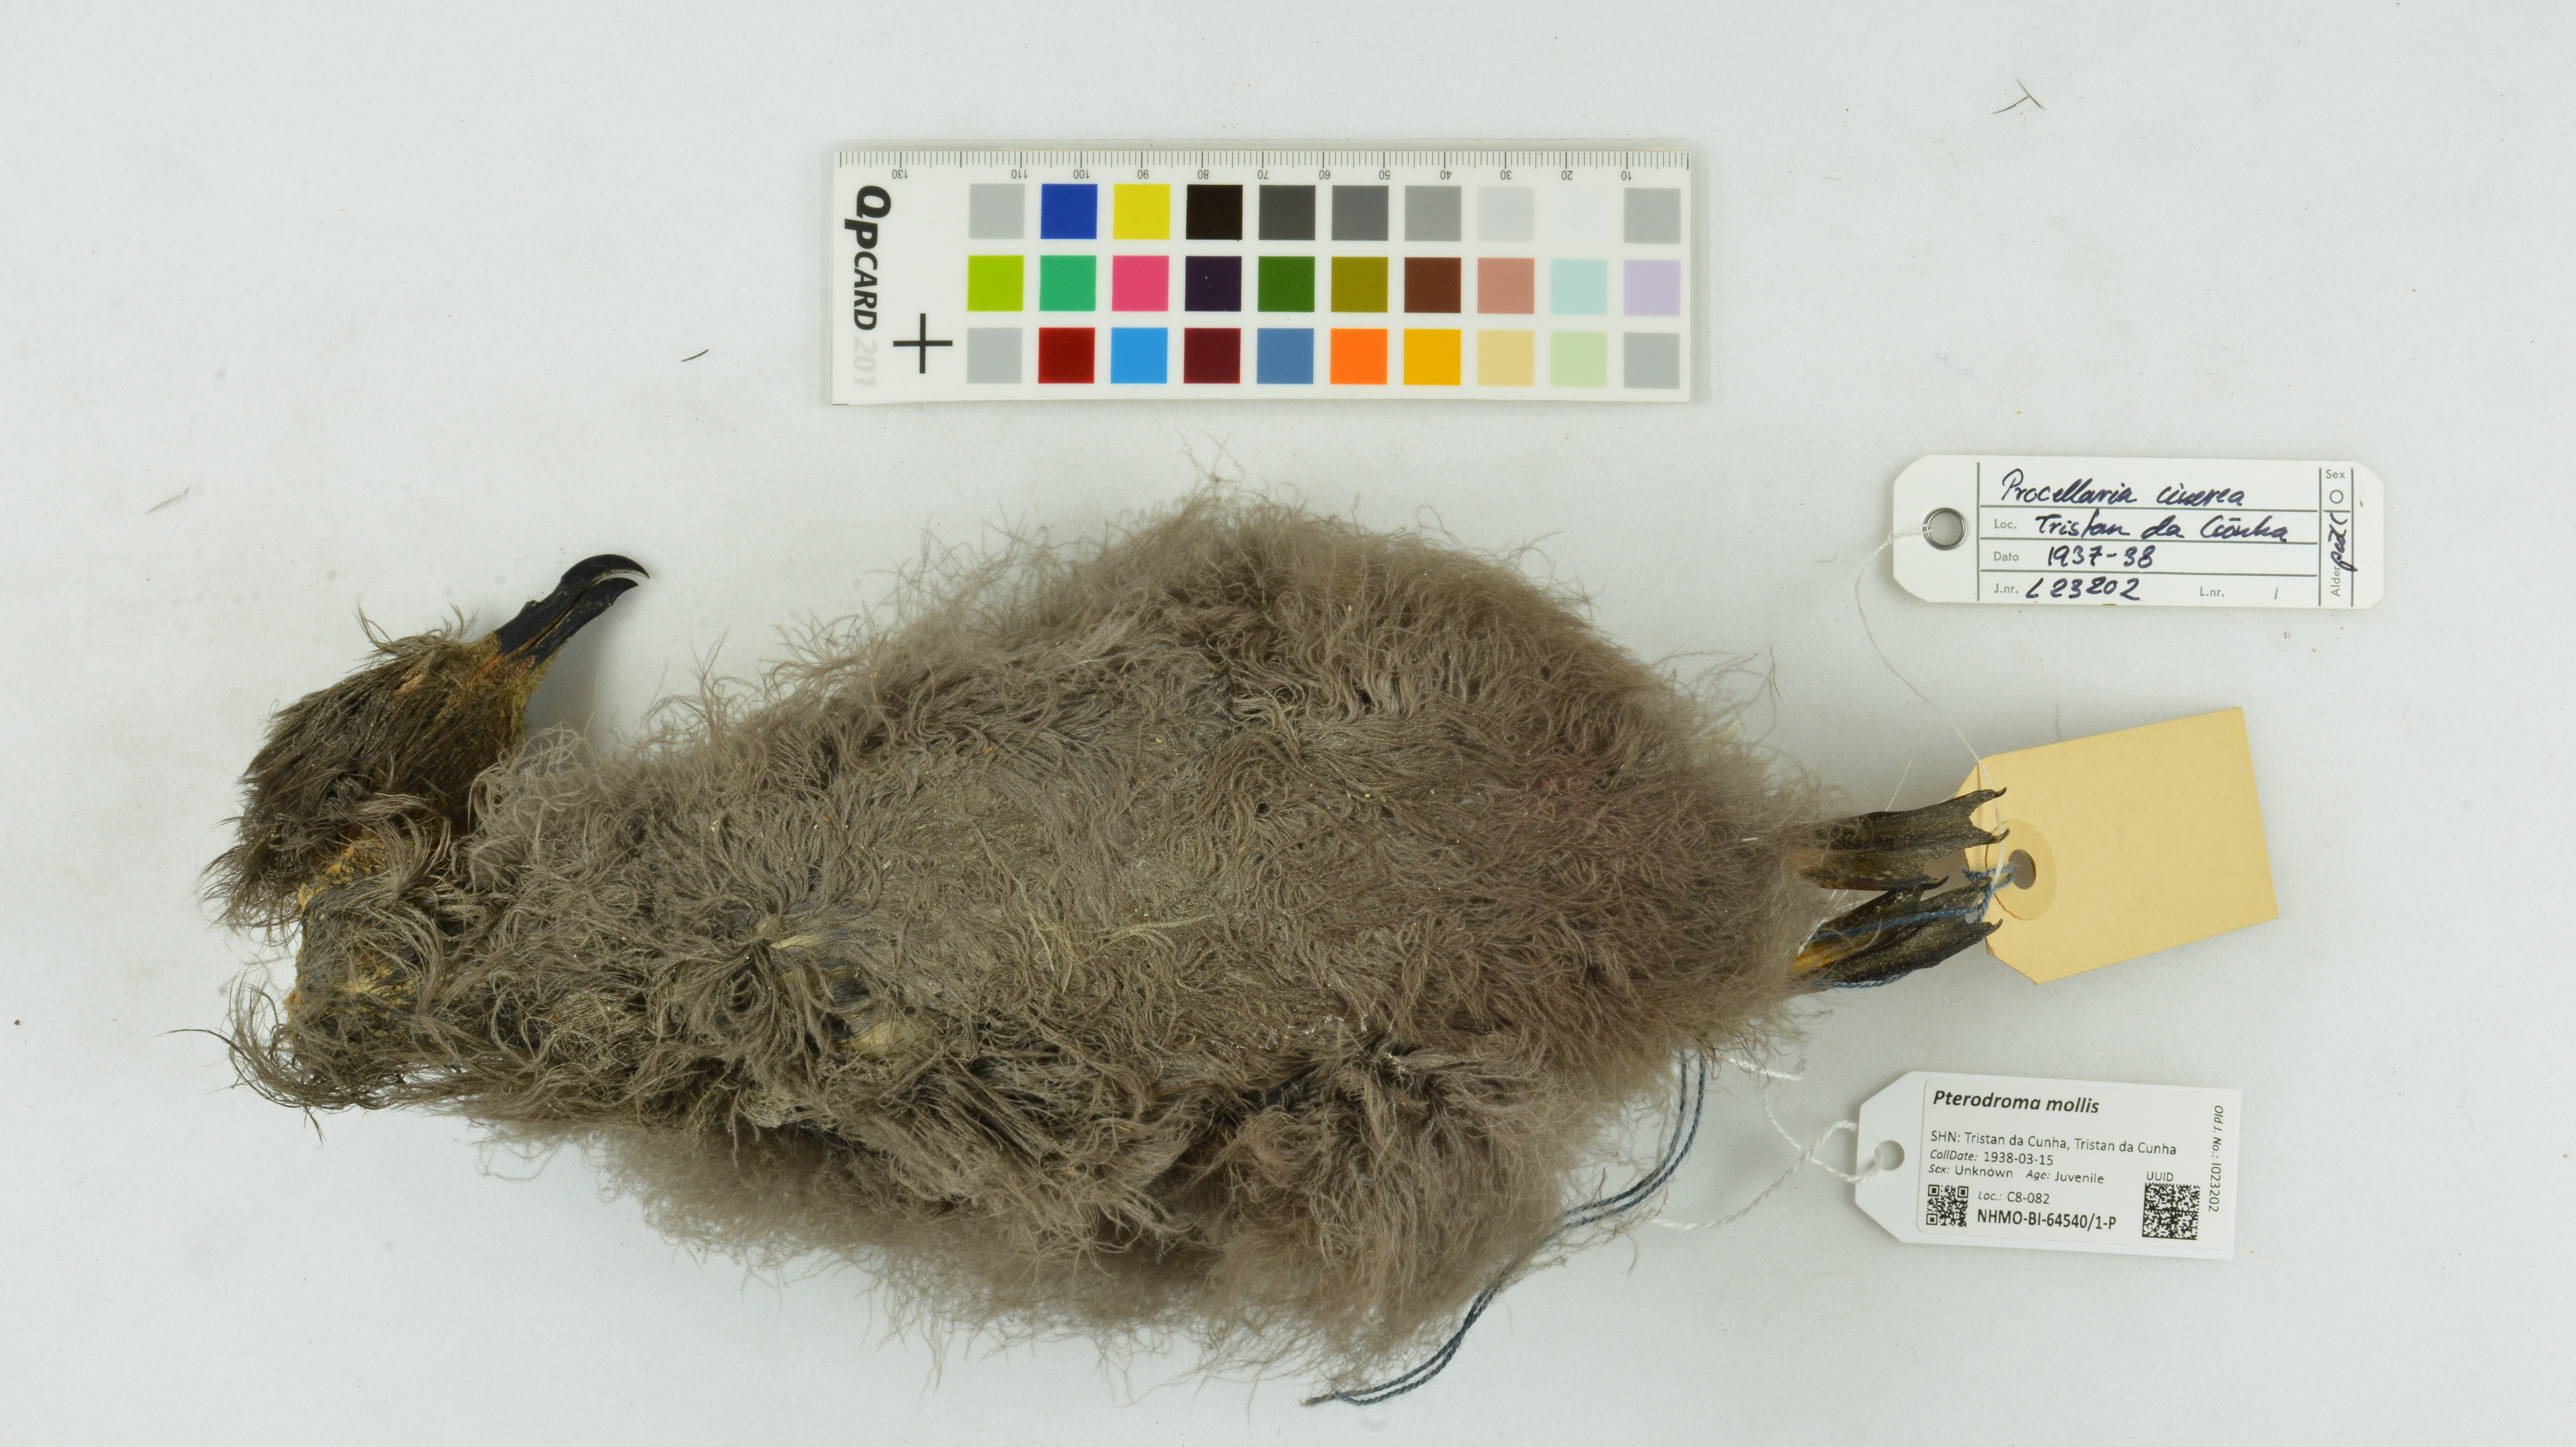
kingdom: Animalia
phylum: Chordata
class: Aves
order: Procellariiformes
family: Procellariidae
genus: Pterodroma
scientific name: Pterodroma mollis
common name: Soft-plumaged petrel
